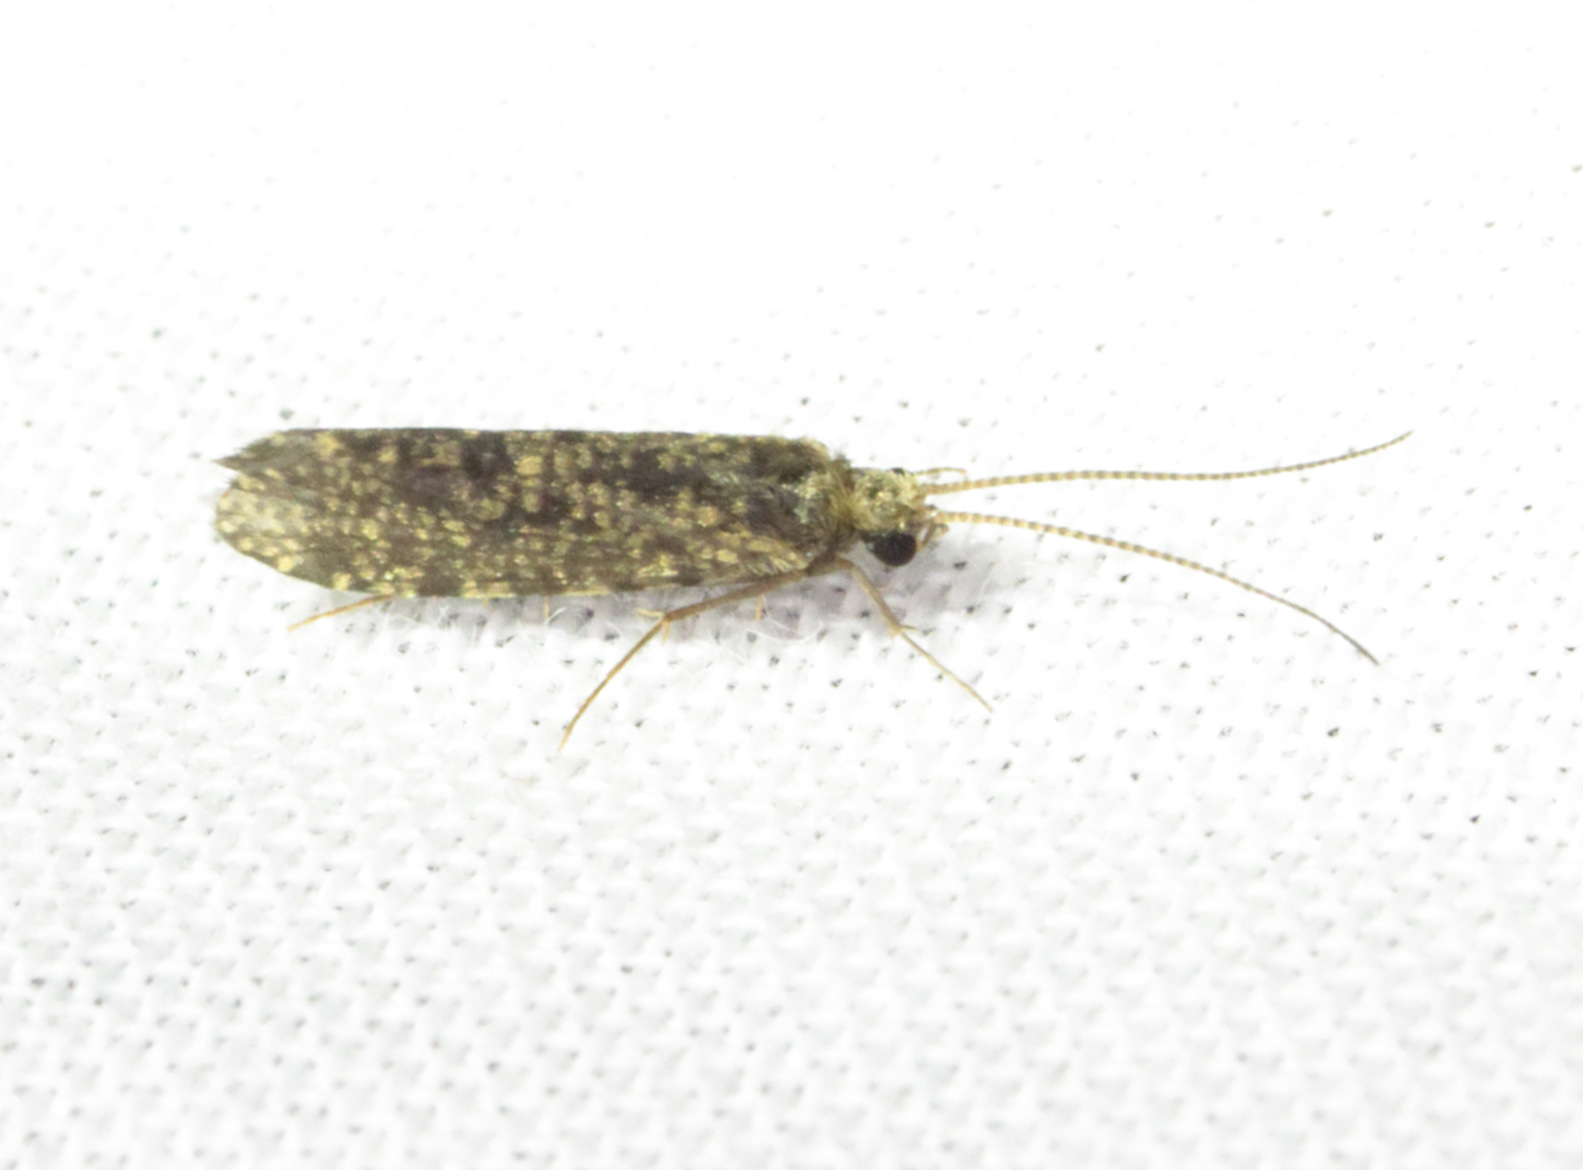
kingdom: Animalia
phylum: Arthropoda
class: Insecta
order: Trichoptera
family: Ecnomidae
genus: Ecnomus
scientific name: Ecnomus tenellus
